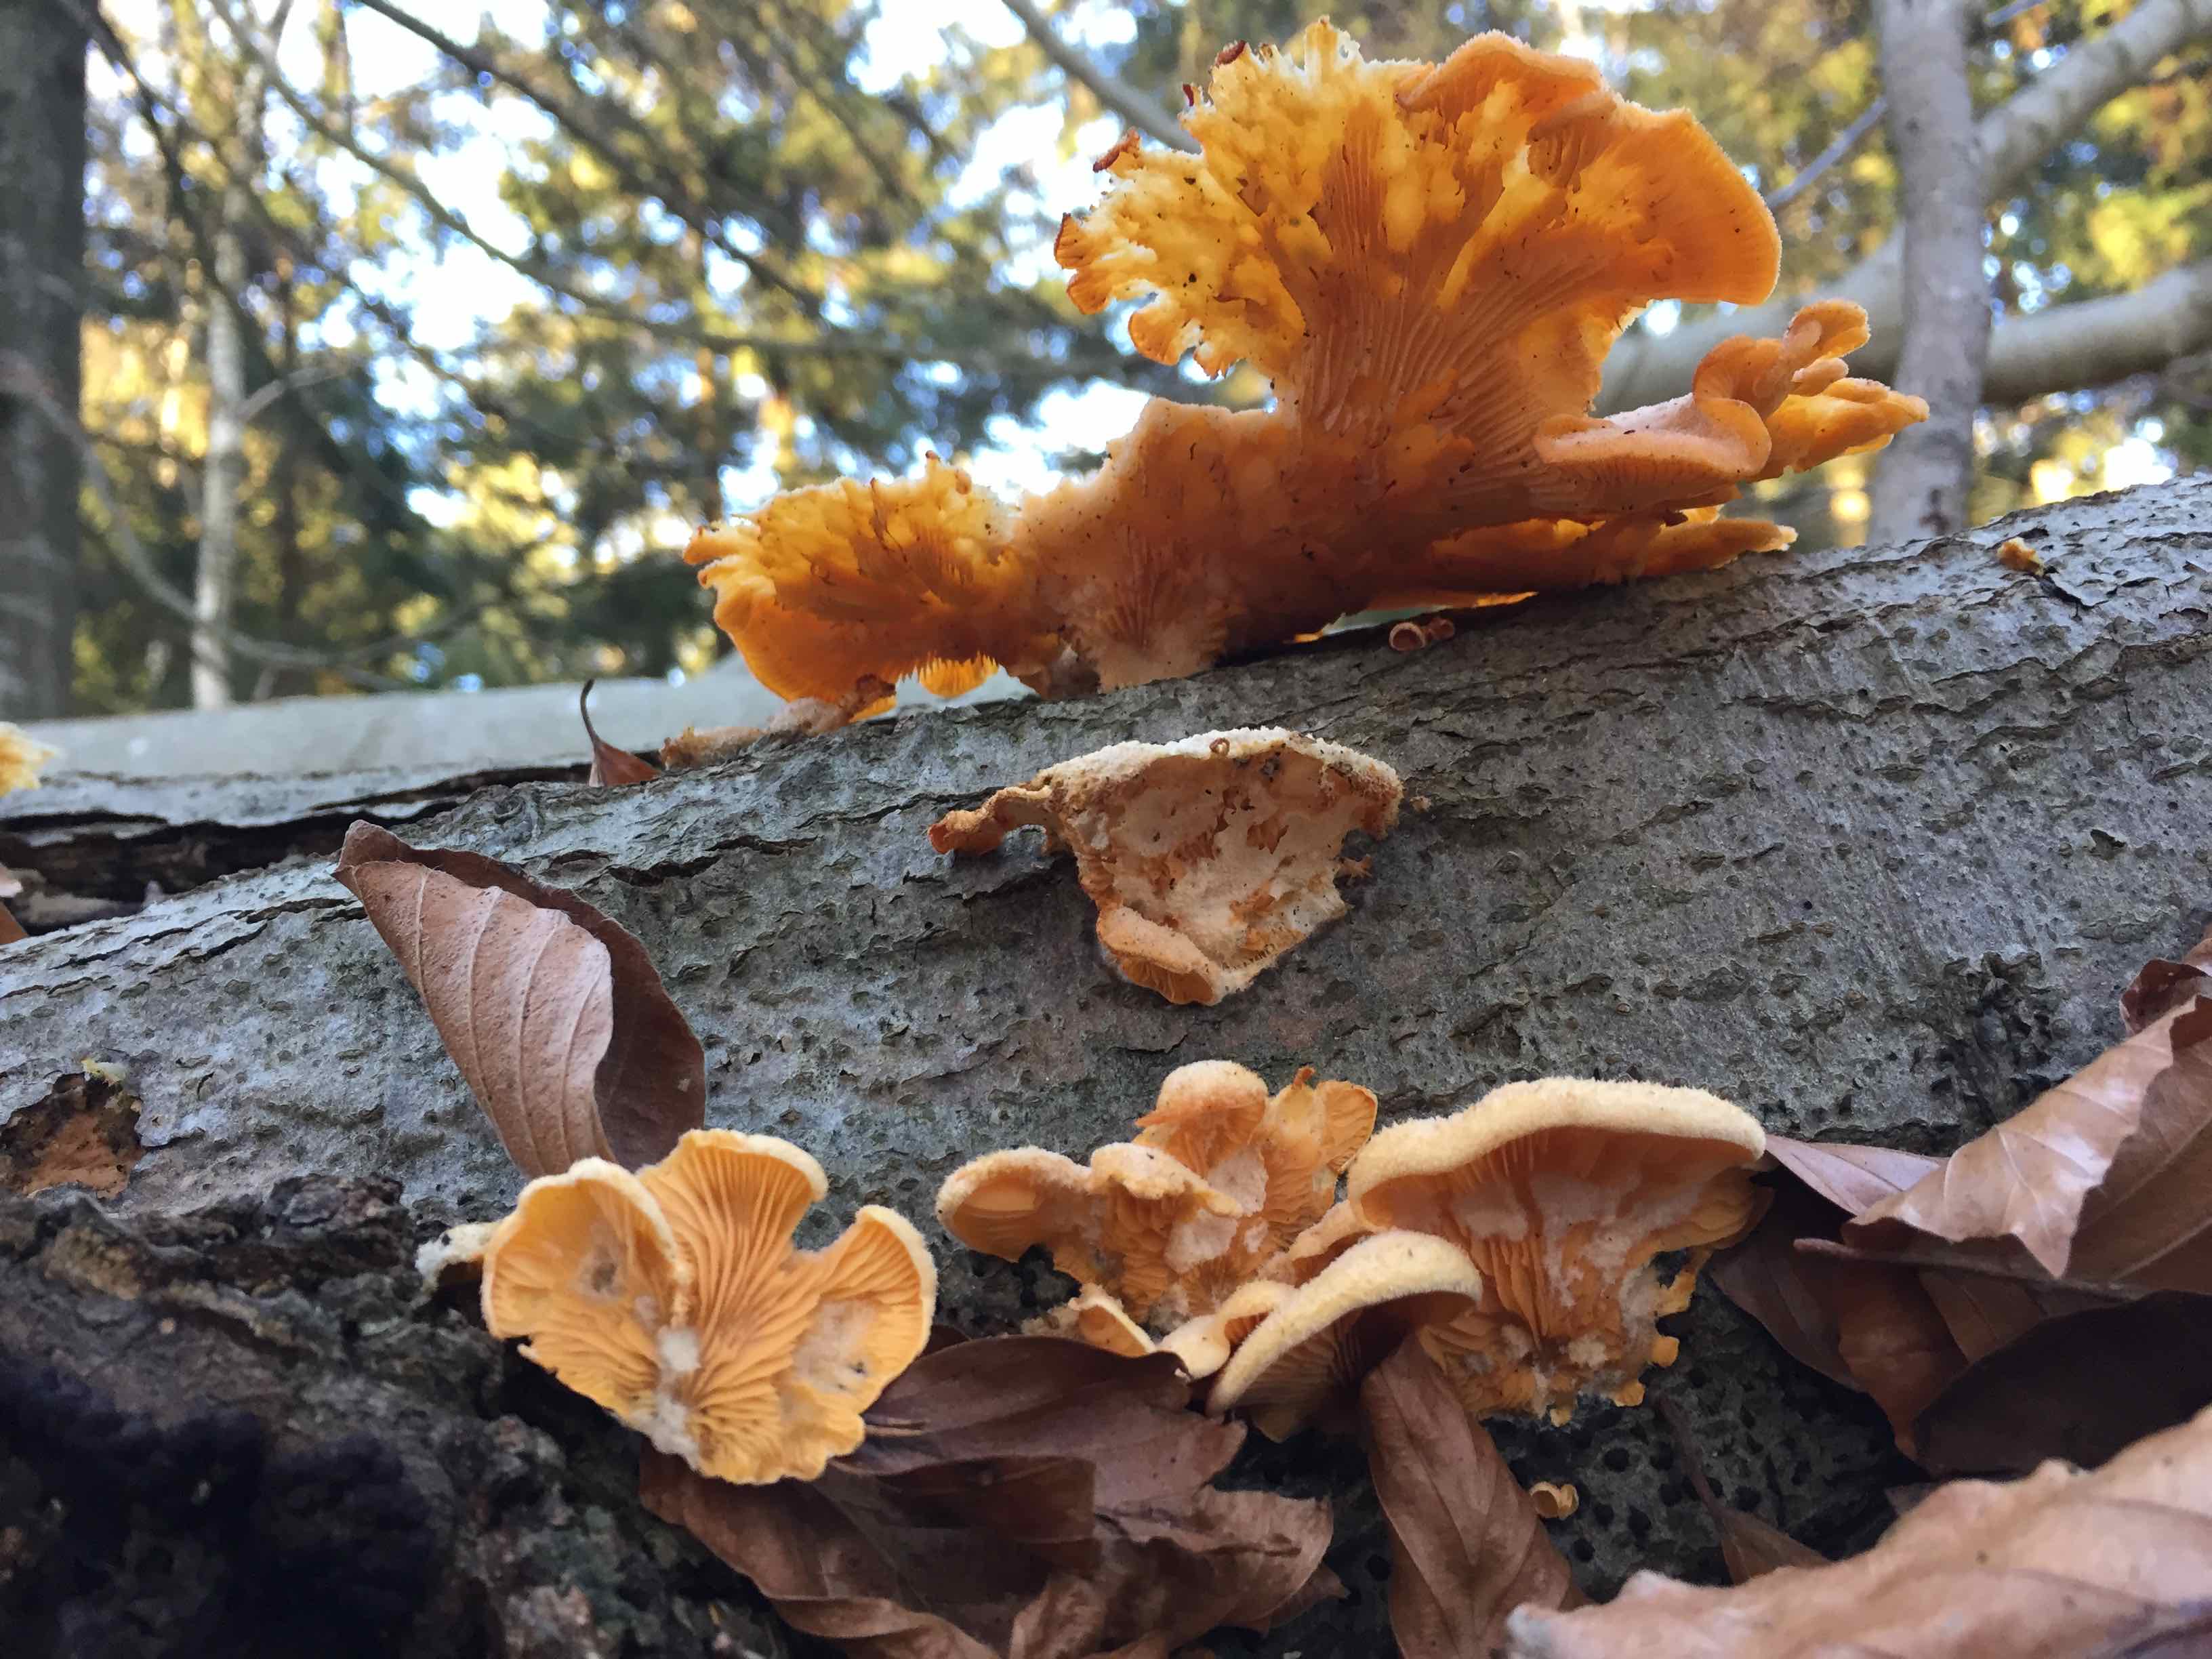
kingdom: Fungi
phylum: Basidiomycota
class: Agaricomycetes
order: Agaricales
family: Phyllotopsidaceae
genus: Phyllotopsis
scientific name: Phyllotopsis nidulans
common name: okkerblad
